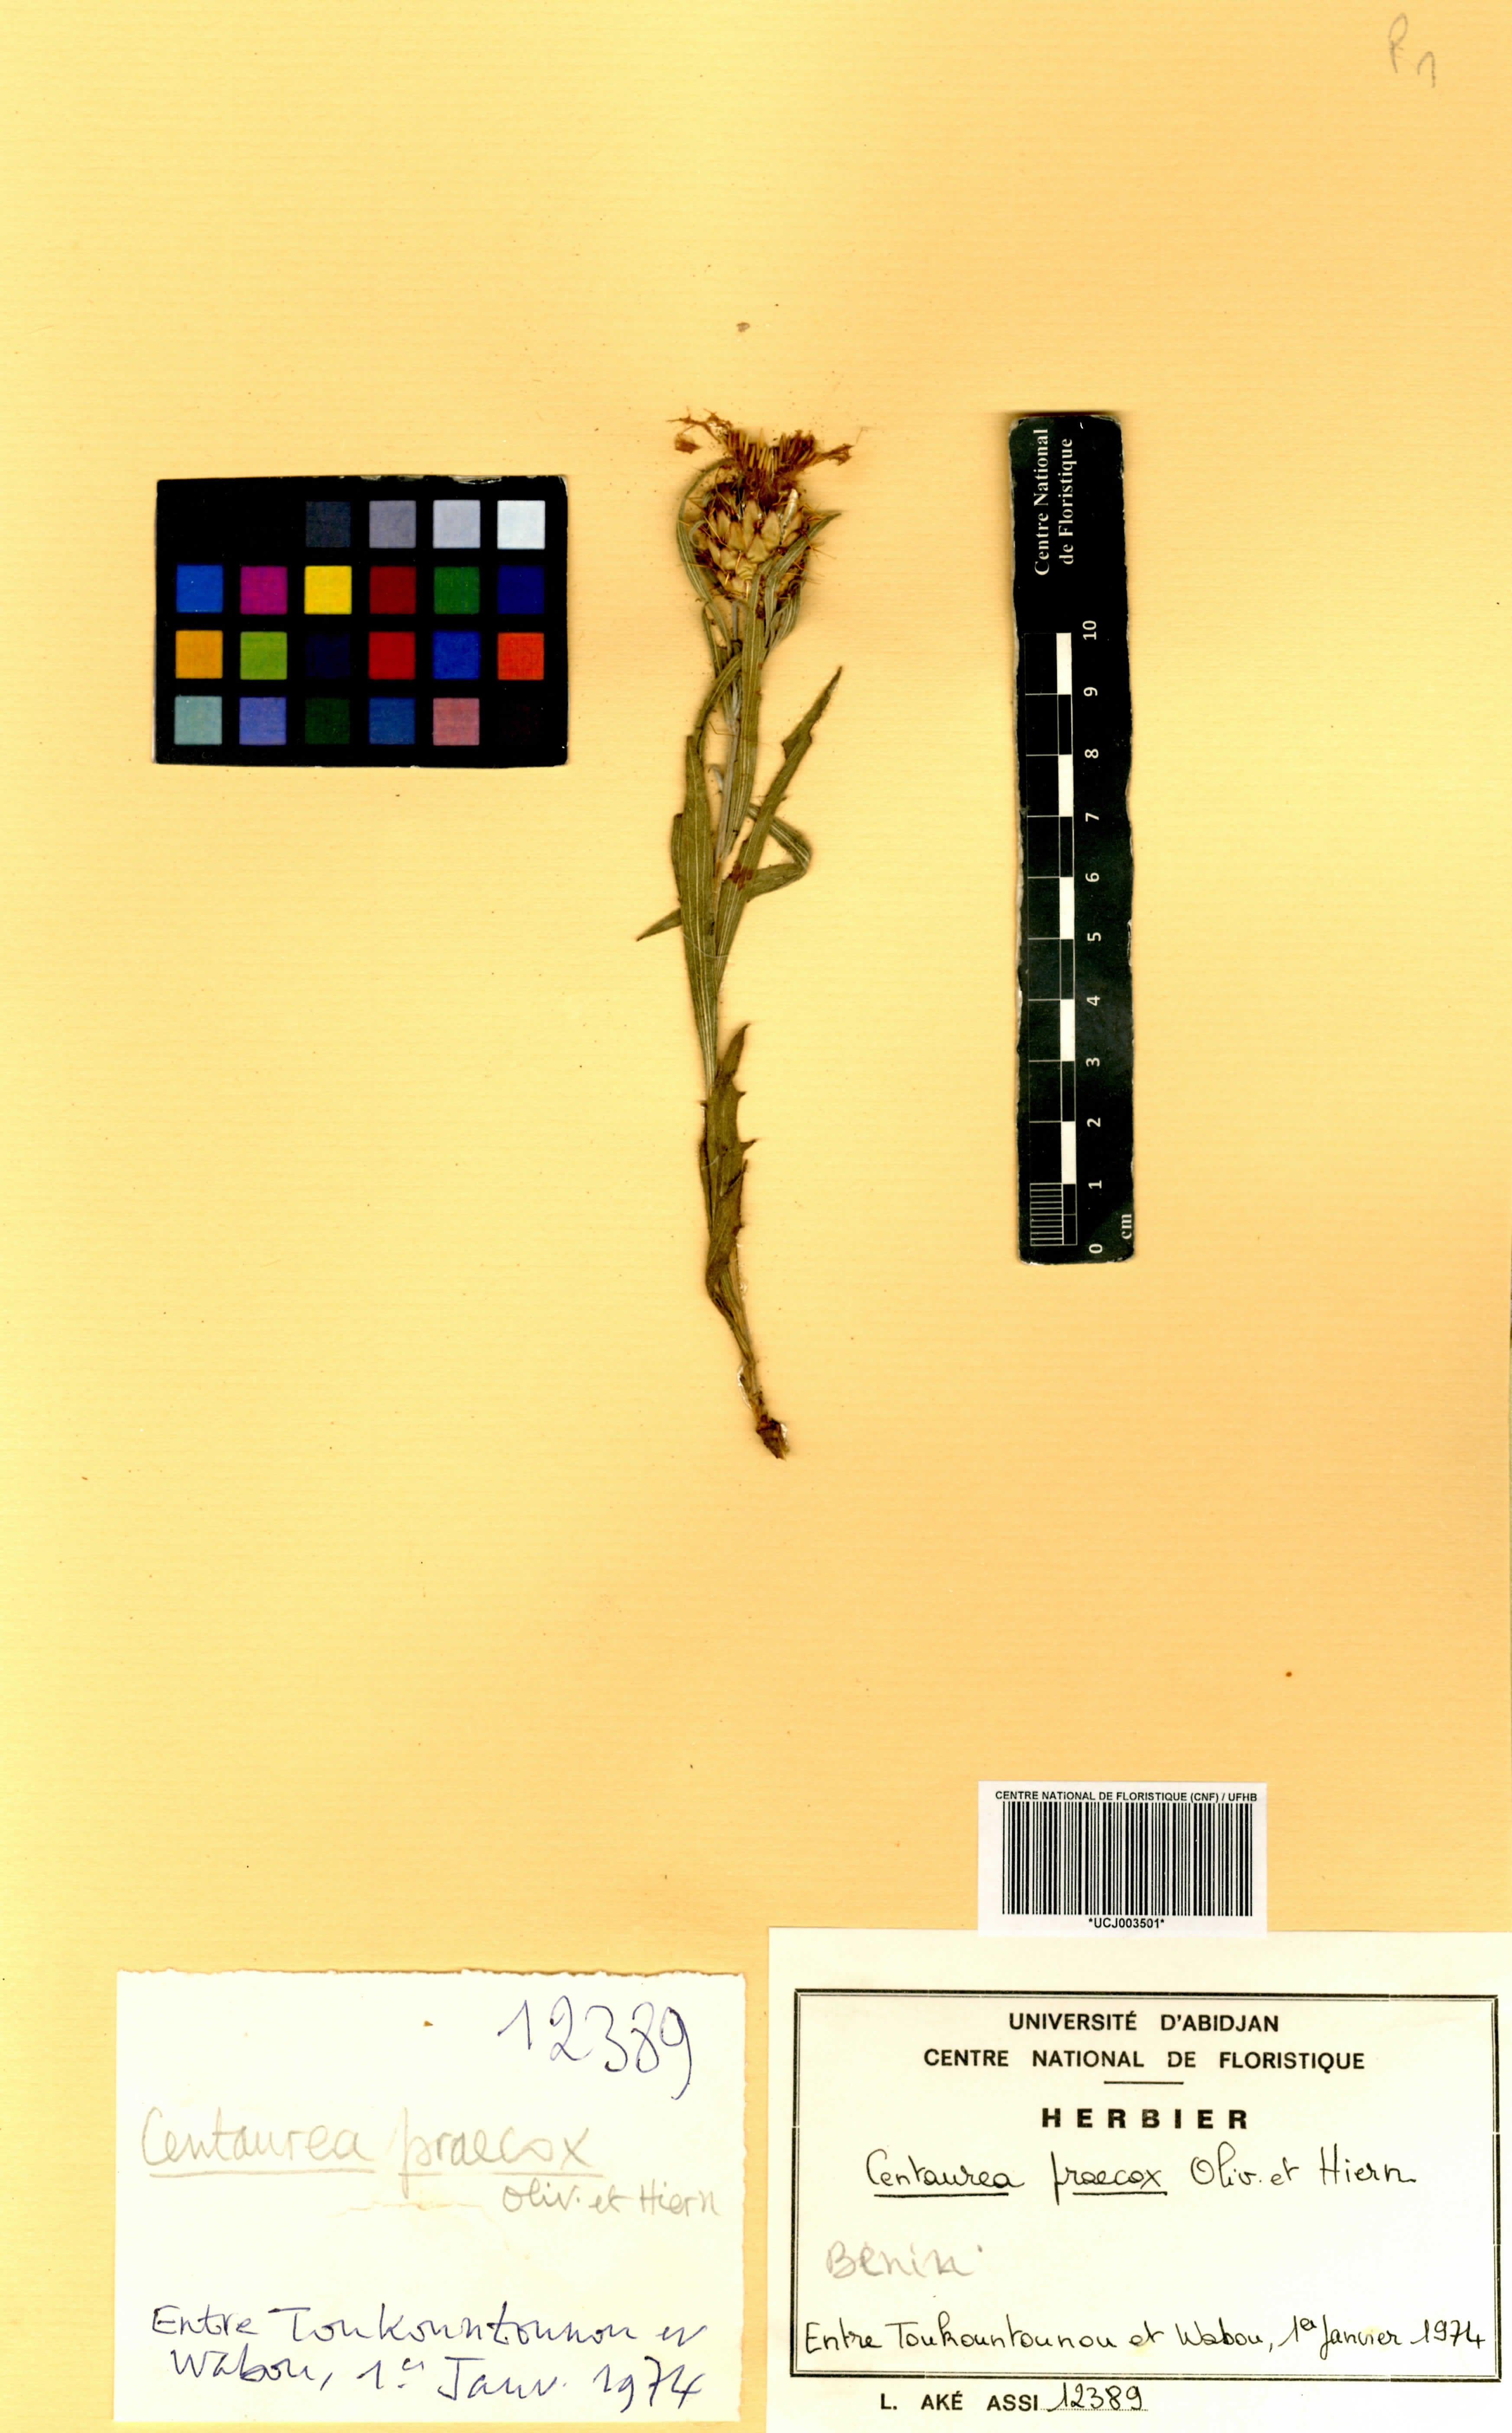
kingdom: Plantae
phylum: Tracheophyta
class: Magnoliopsida
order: Asterales
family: Asteraceae
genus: Centaurea
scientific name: Centaurea praecox
